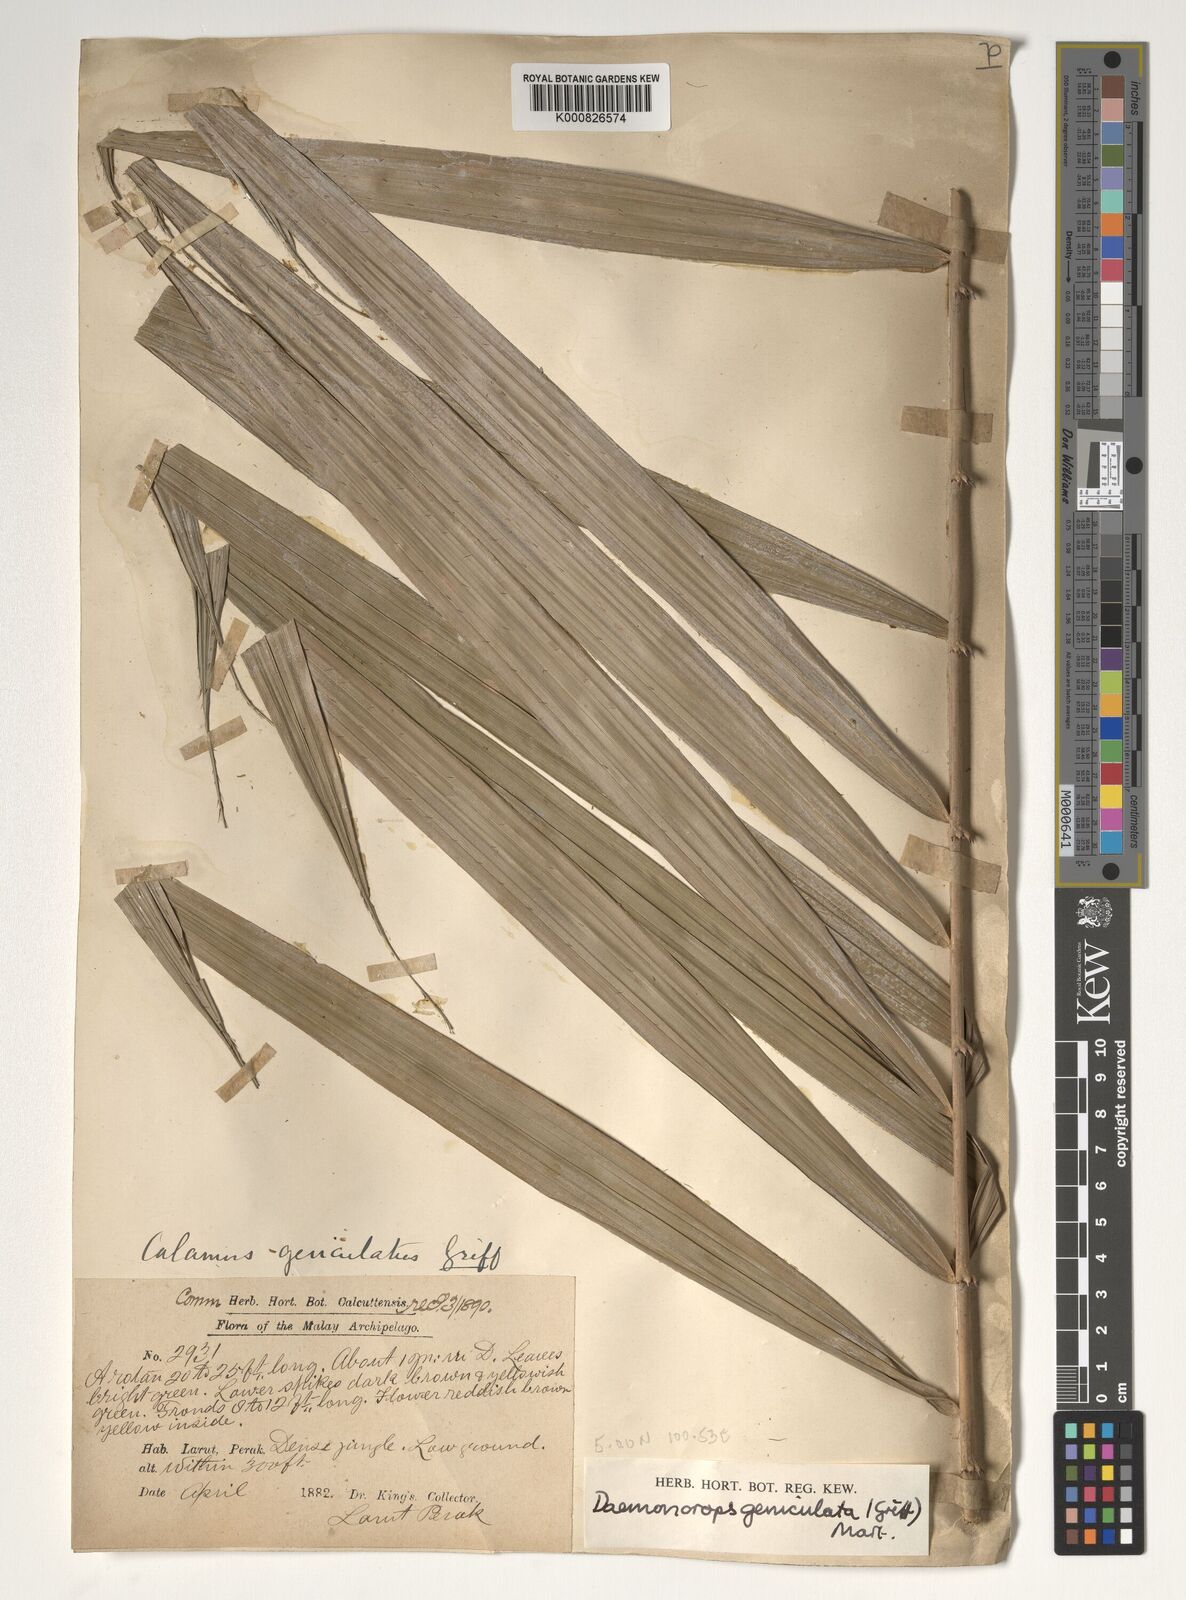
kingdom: Plantae
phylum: Tracheophyta
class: Liliopsida
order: Arecales
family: Arecaceae
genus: Calamus
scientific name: Calamus geniculatus
